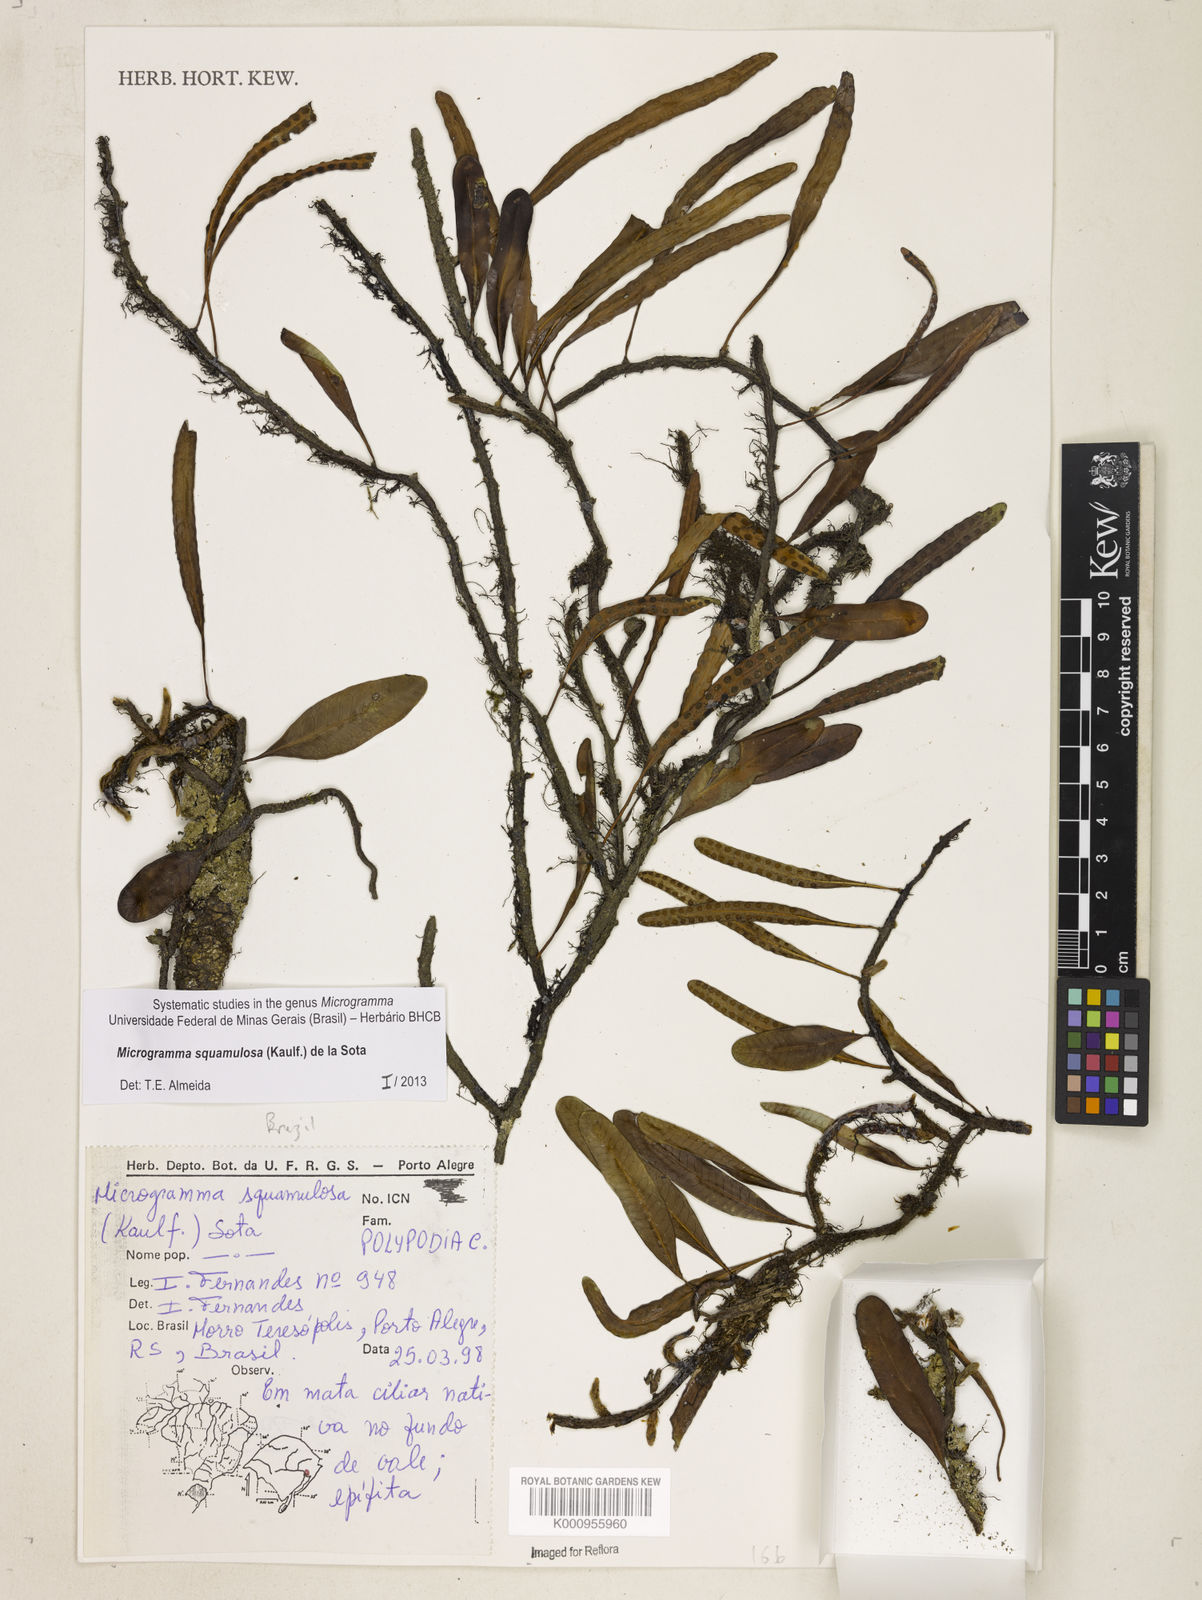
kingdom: Plantae
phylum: Tracheophyta
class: Polypodiopsida
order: Polypodiales
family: Polypodiaceae
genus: Microgramma
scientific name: Microgramma squamulosa
